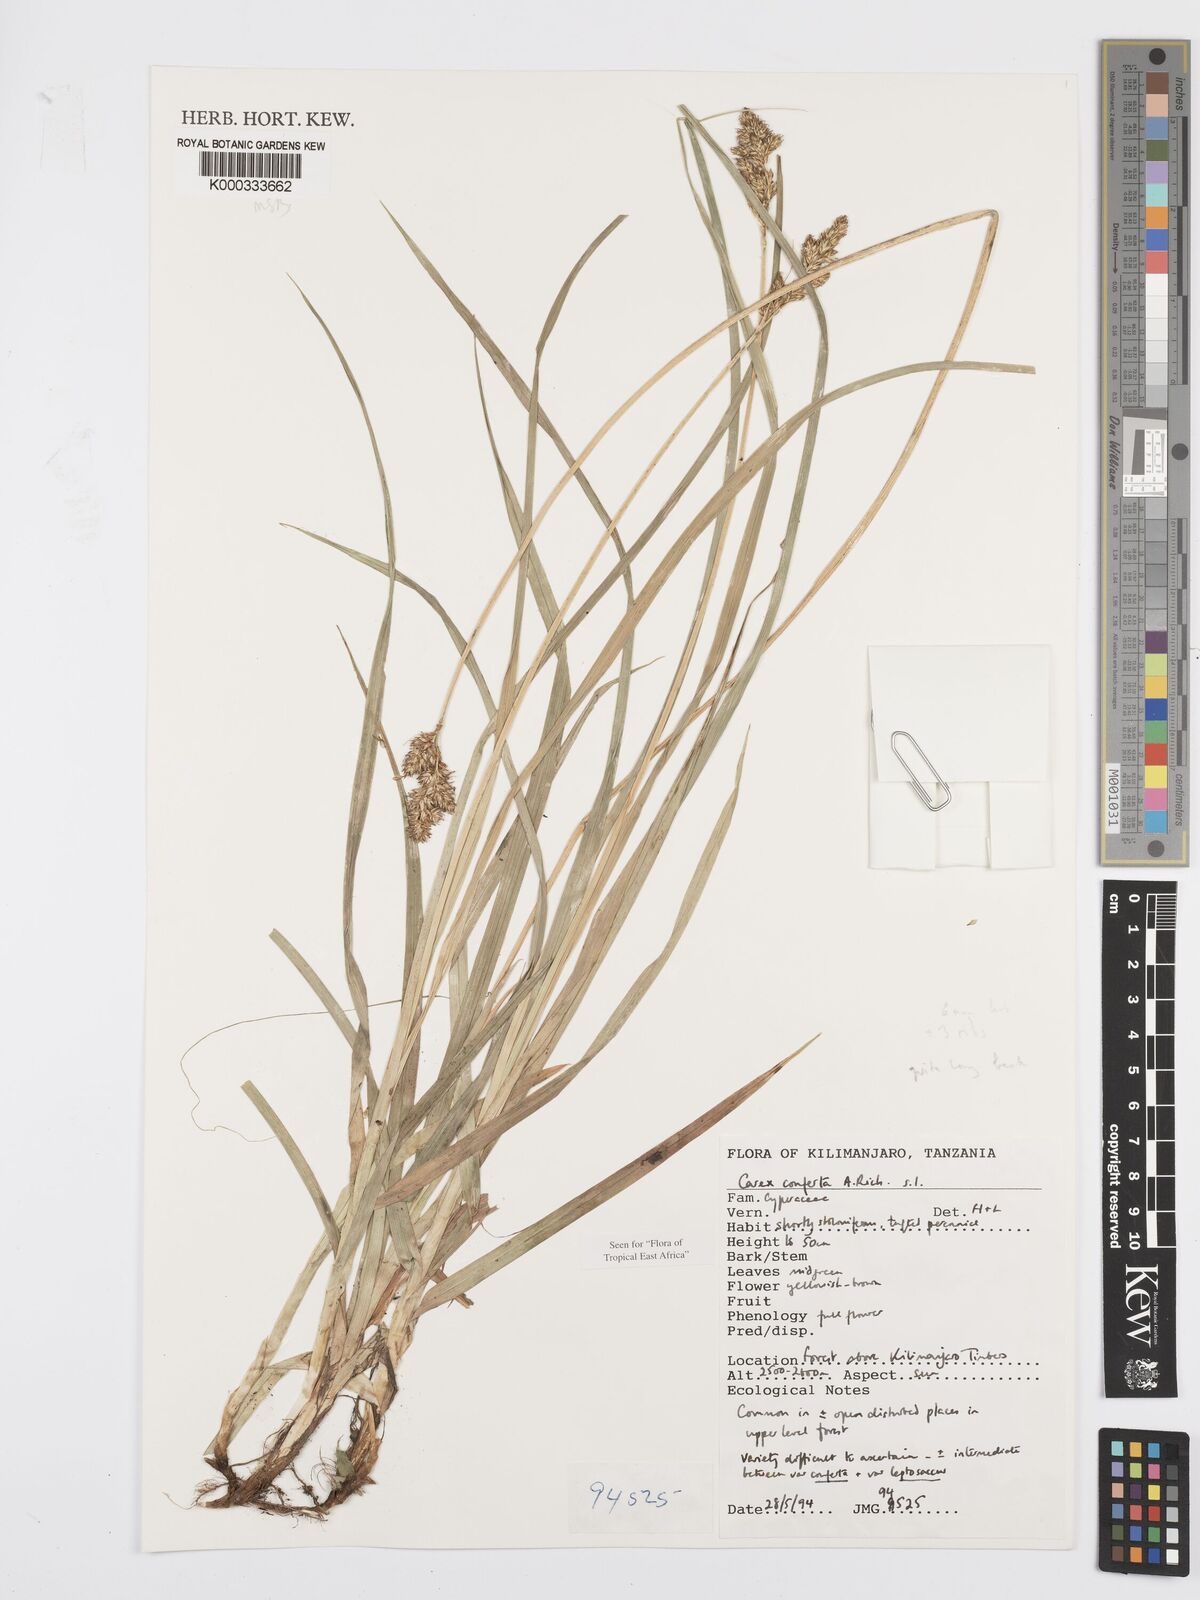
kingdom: Plantae
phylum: Tracheophyta
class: Liliopsida
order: Poales
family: Cyperaceae
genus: Carex
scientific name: Carex conferta
